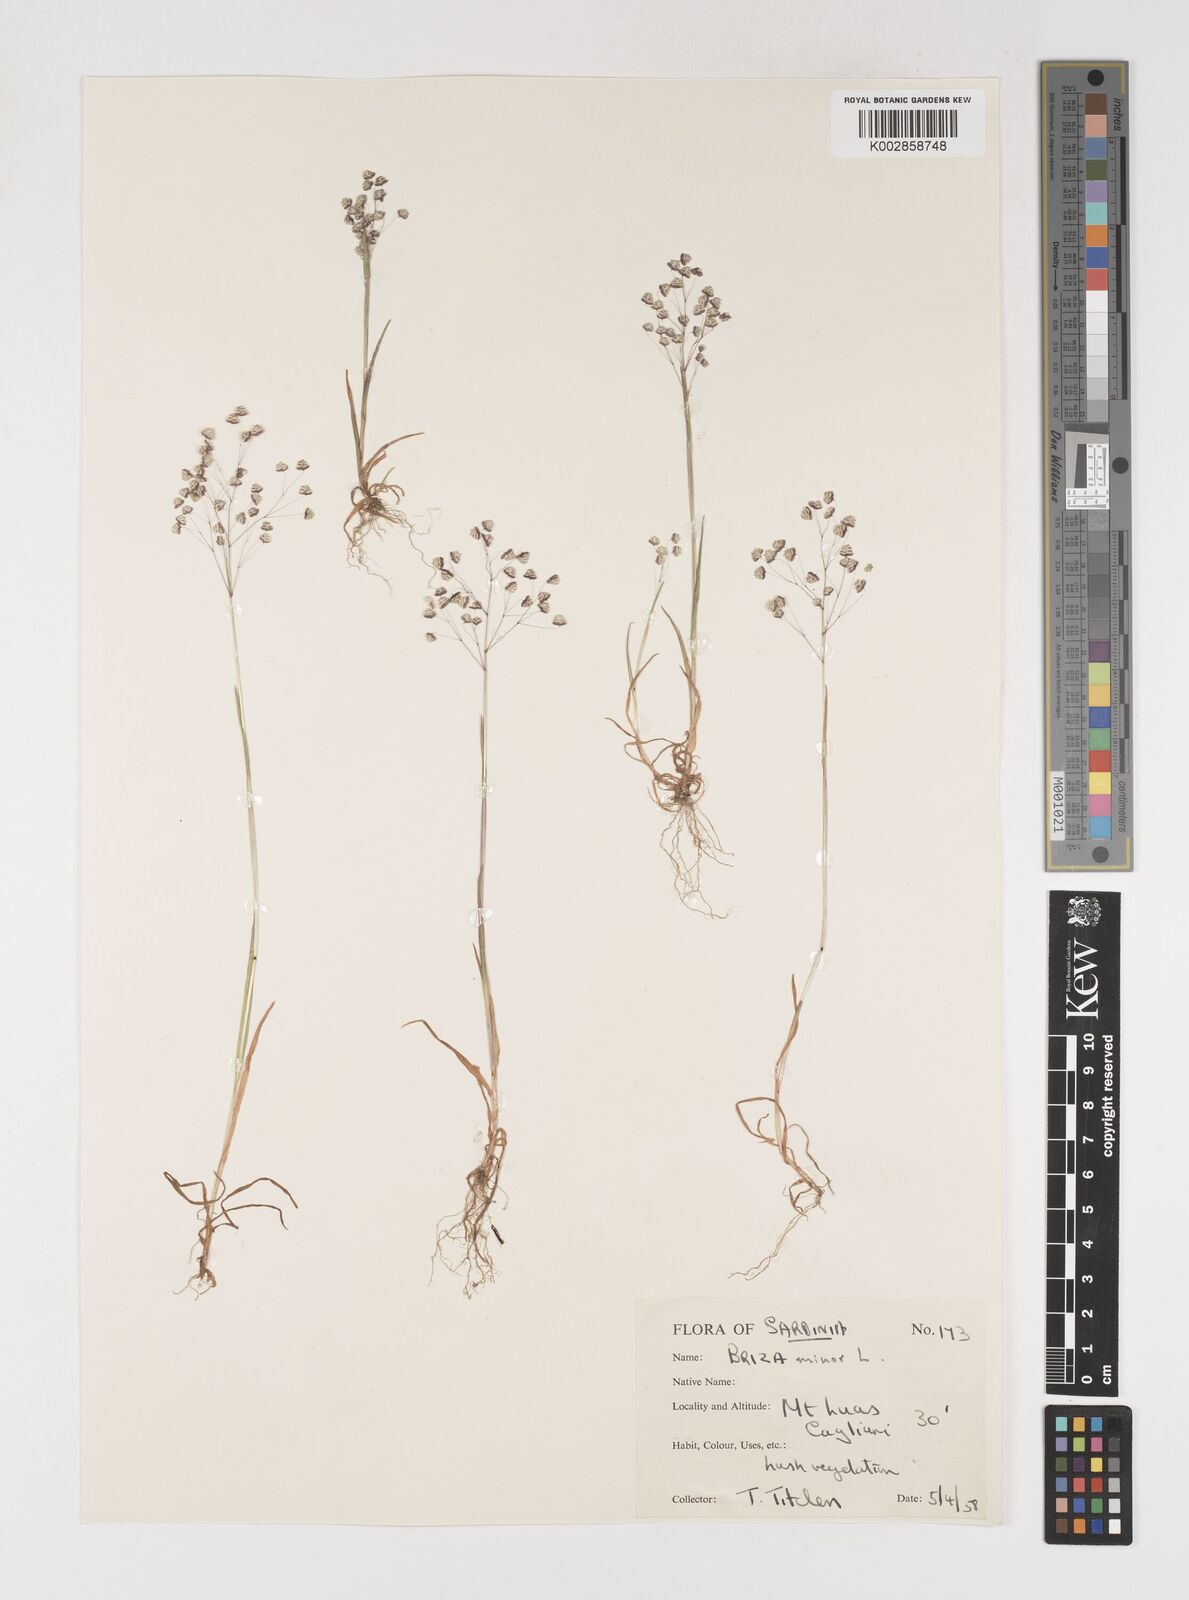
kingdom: Plantae
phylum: Tracheophyta
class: Liliopsida
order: Poales
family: Poaceae
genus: Briza
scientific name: Briza minor
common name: Lesser quaking-grass
